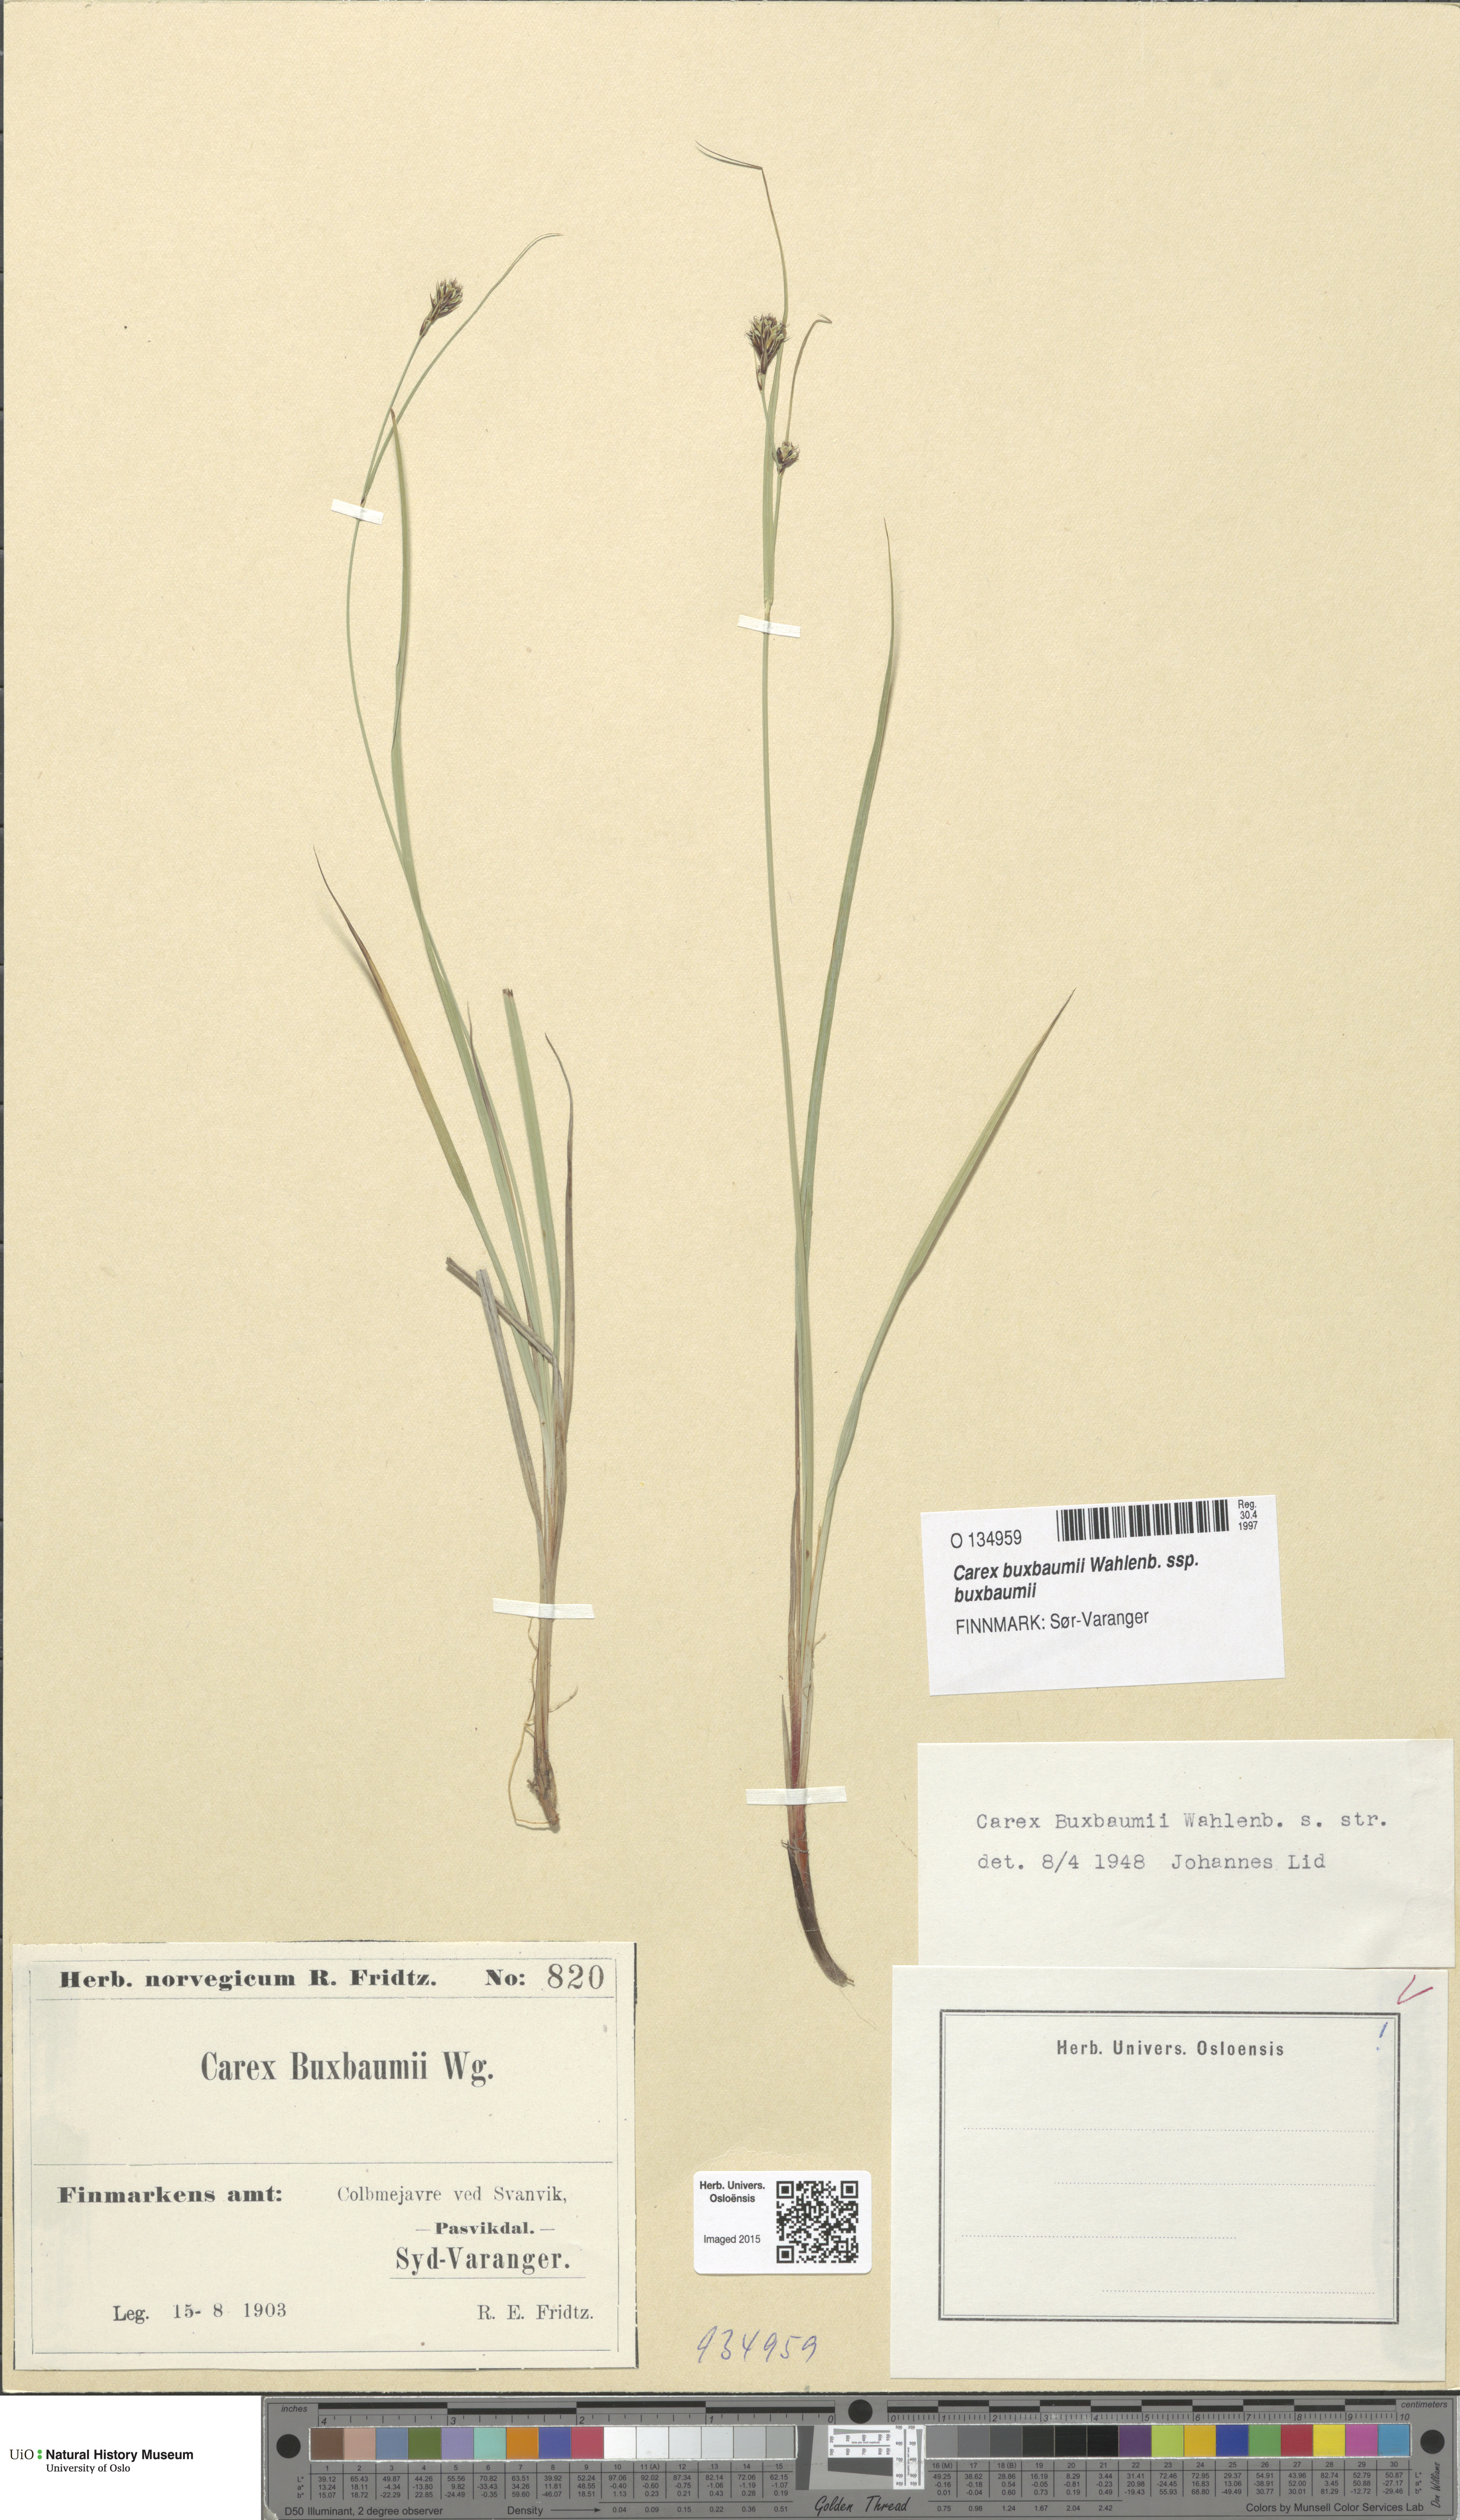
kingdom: Plantae
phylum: Tracheophyta
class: Liliopsida
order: Poales
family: Cyperaceae
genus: Carex
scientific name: Carex buxbaumii
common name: Club sedge
